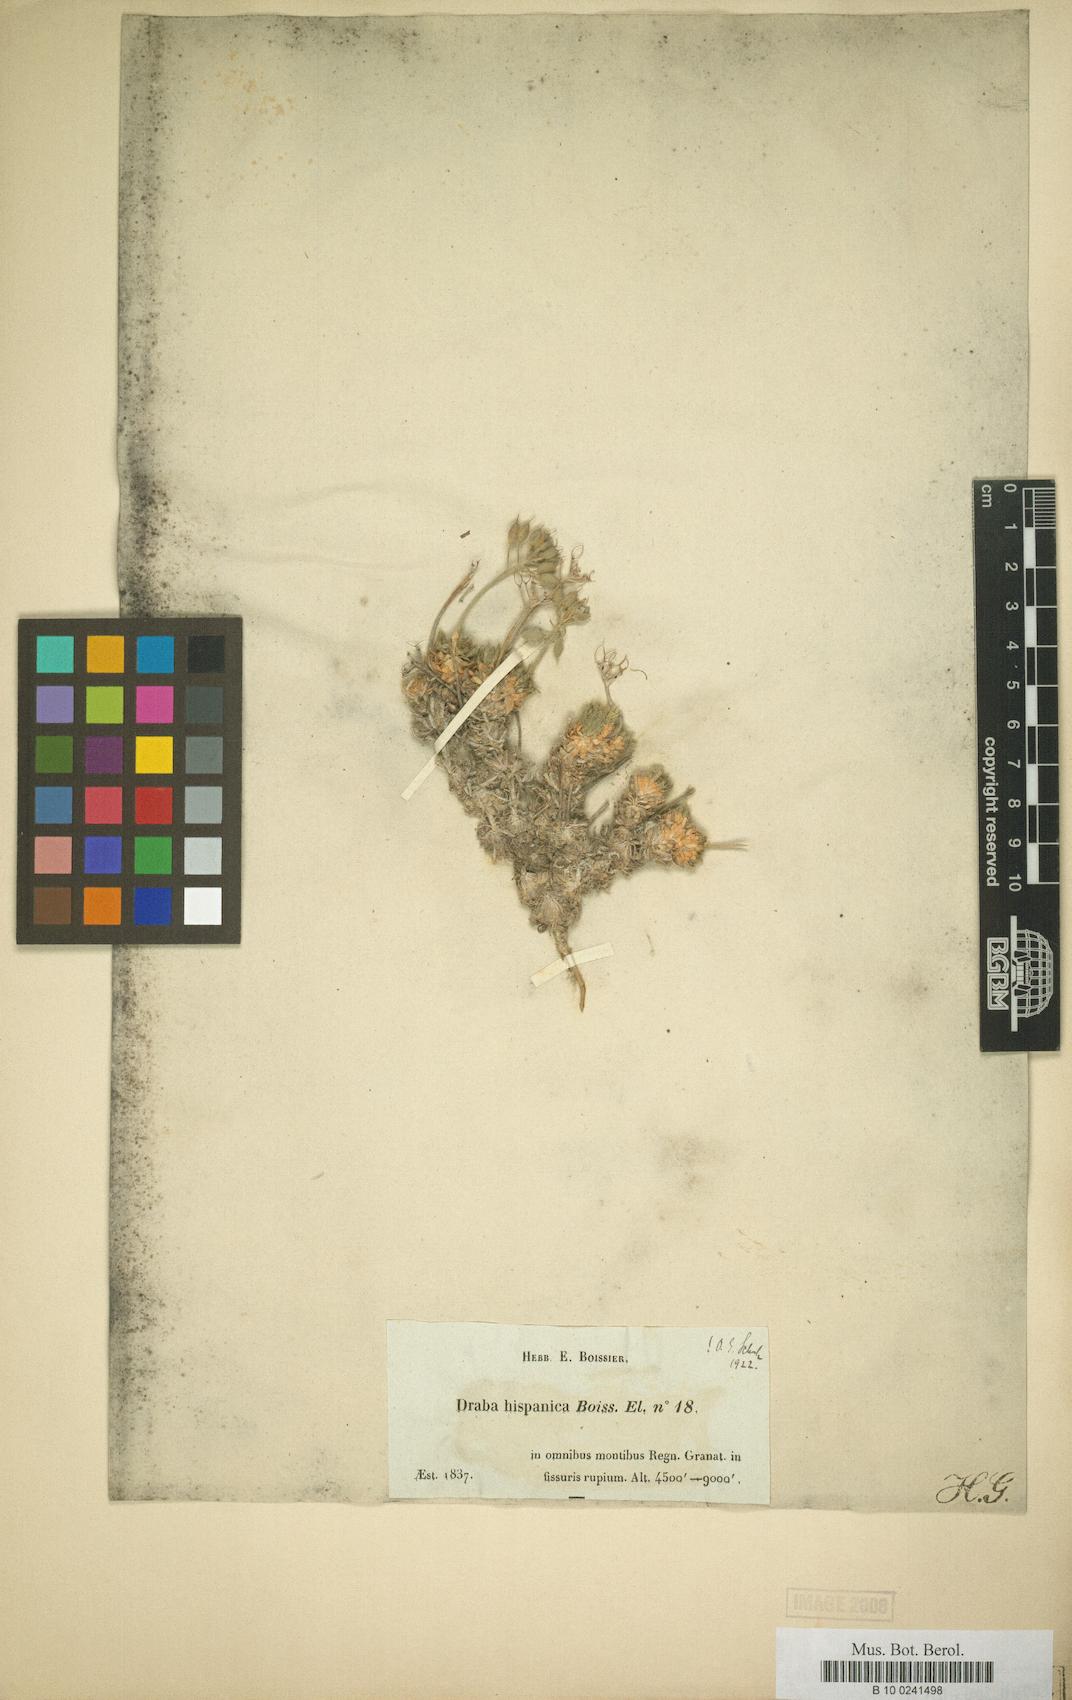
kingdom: Plantae
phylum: Tracheophyta
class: Magnoliopsida
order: Brassicales
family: Brassicaceae
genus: Draba
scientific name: Draba hispanica
